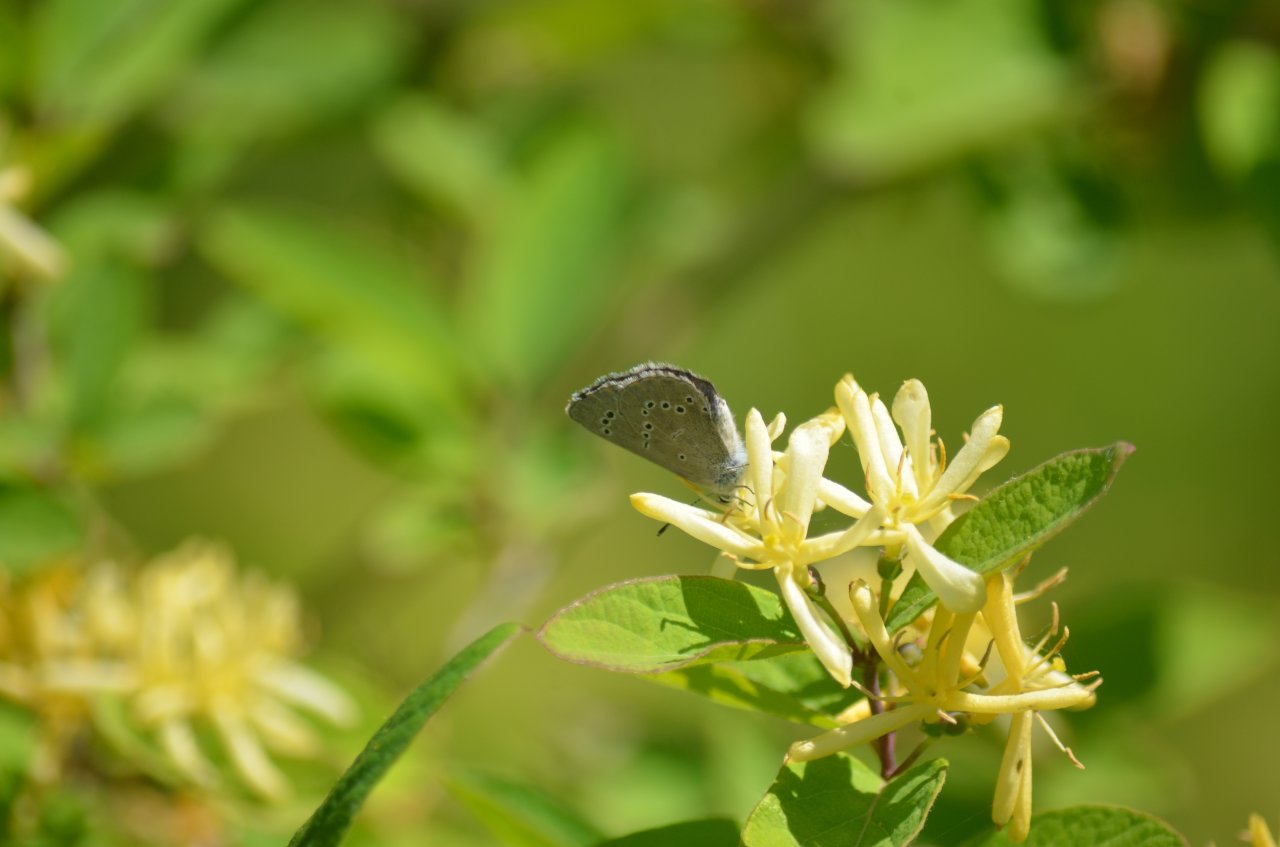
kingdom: Animalia
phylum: Arthropoda
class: Insecta
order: Lepidoptera
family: Lycaenidae
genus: Glaucopsyche
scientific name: Glaucopsyche lygdamus
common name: Silvery Blue
